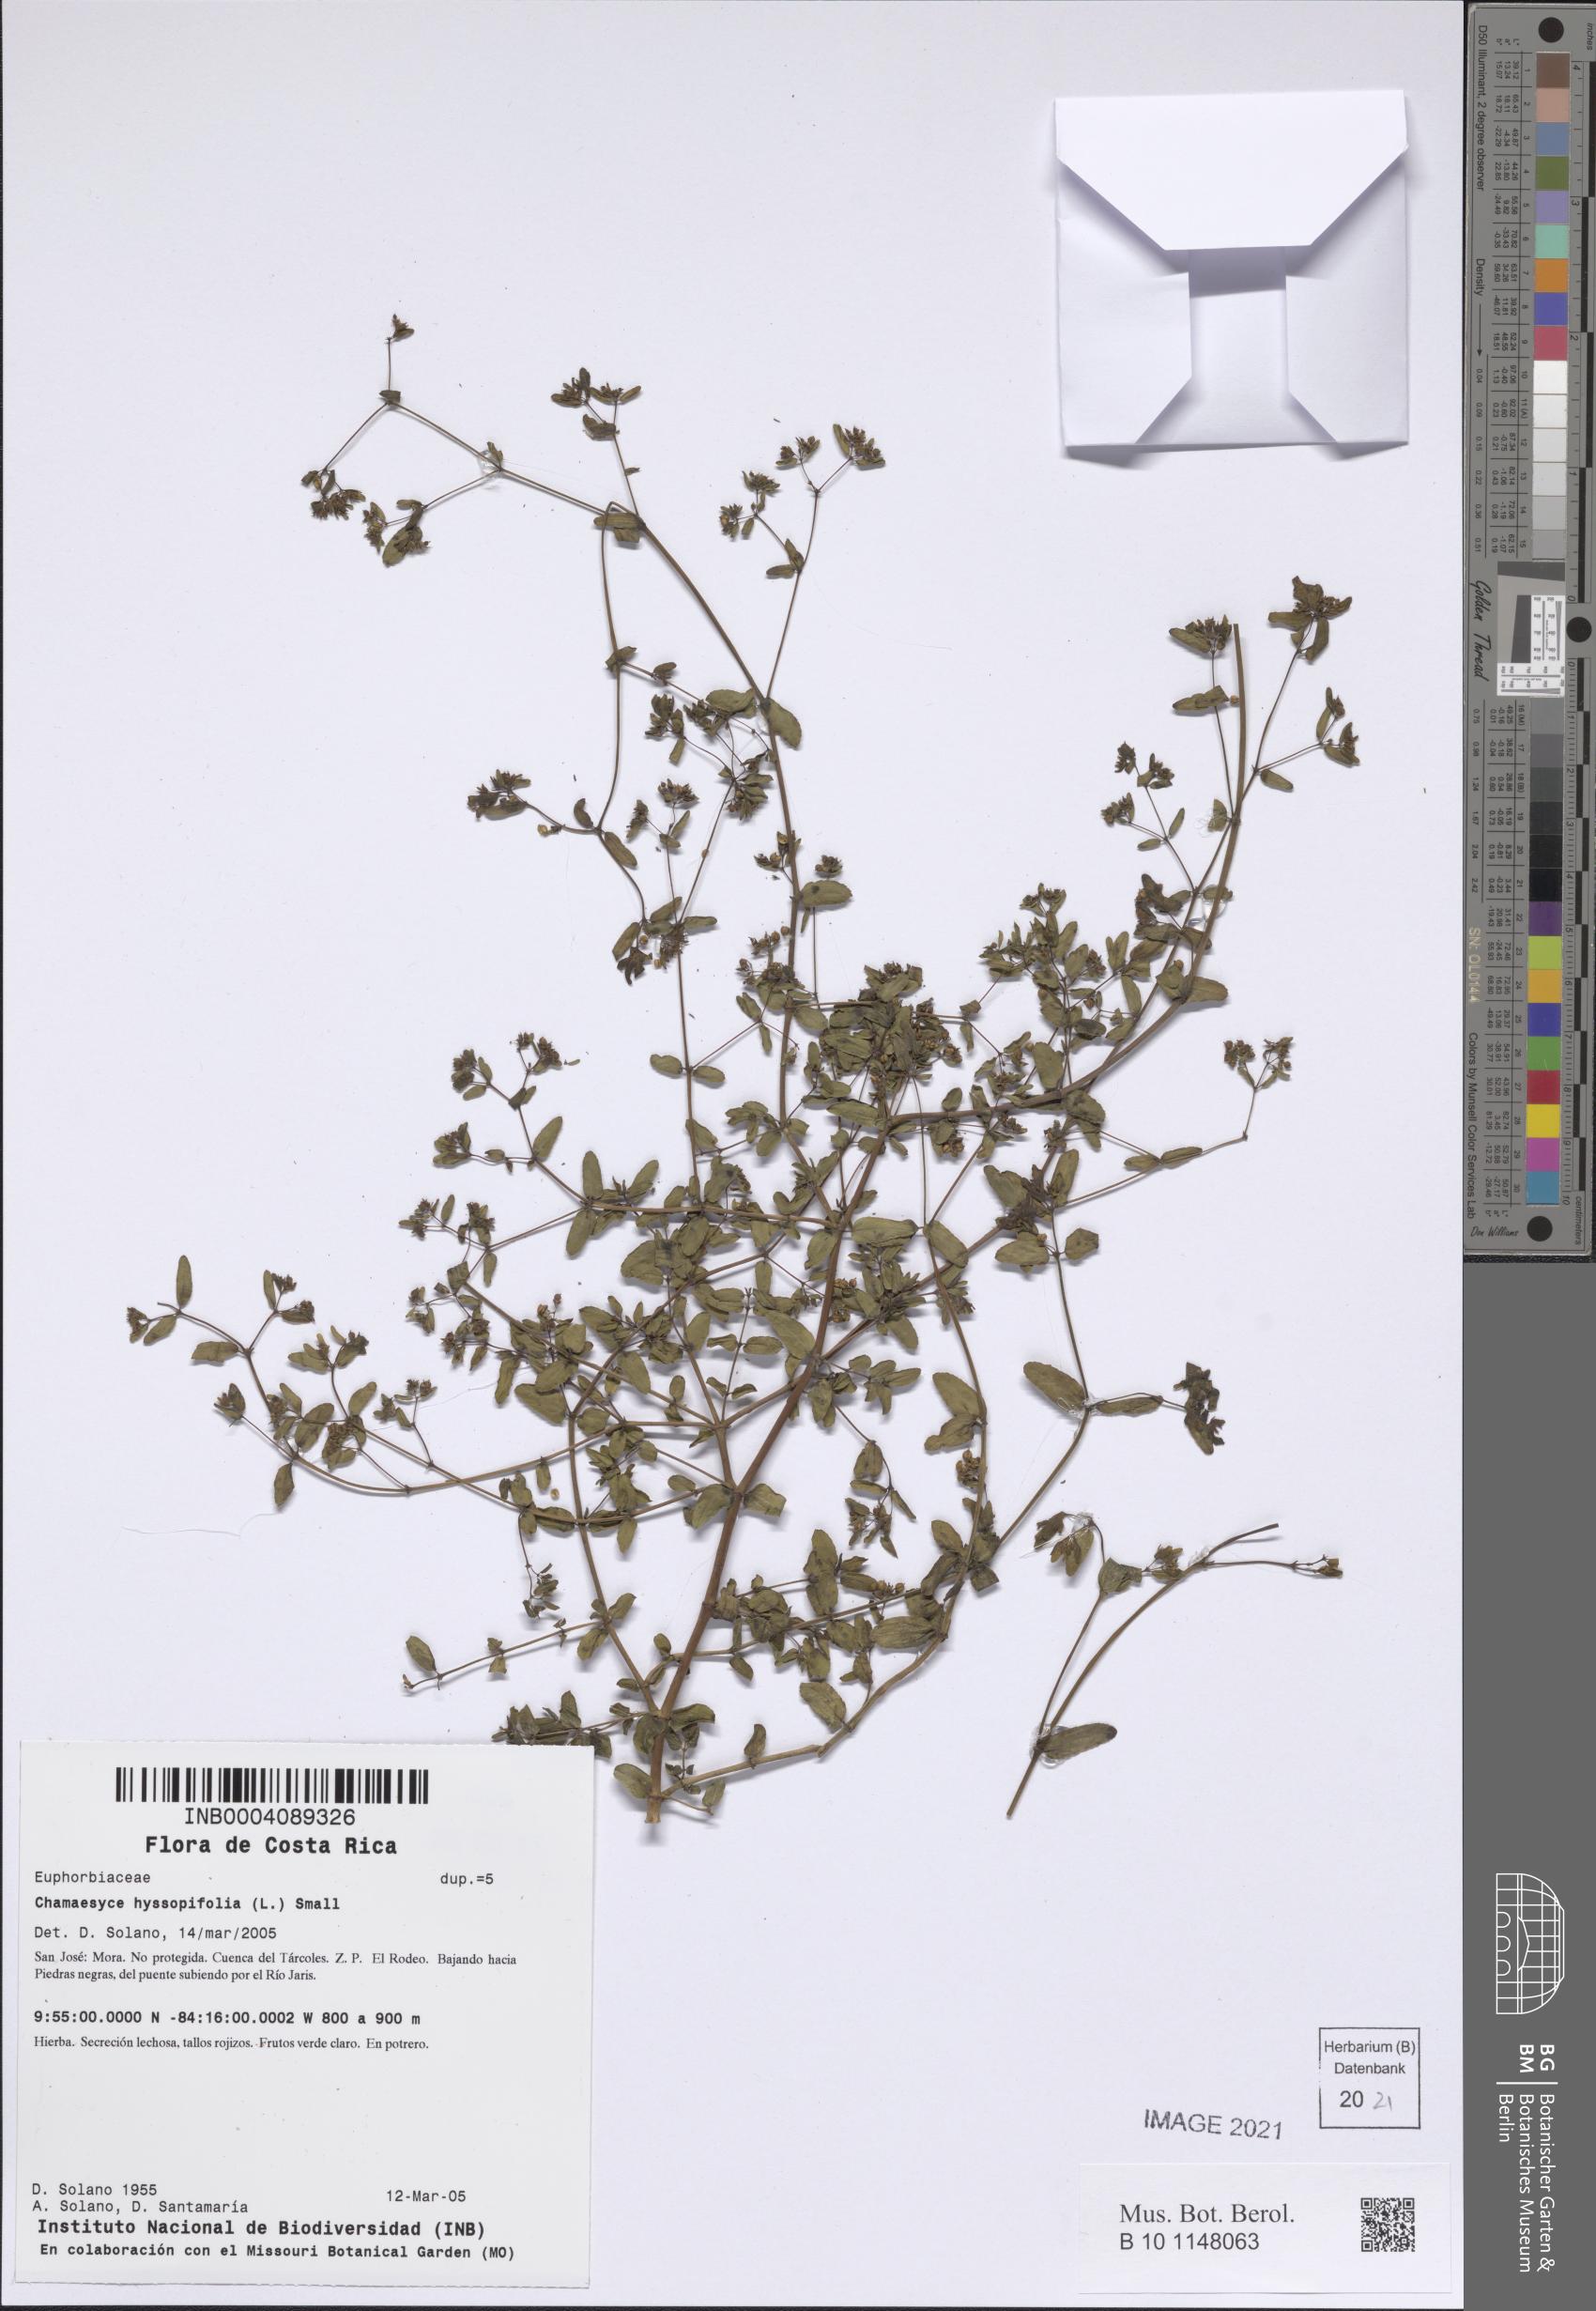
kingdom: Plantae
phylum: Tracheophyta
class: Magnoliopsida
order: Malpighiales
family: Euphorbiaceae
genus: Euphorbia
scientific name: Euphorbia hyssopifolia
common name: Hyssopleaf sandmat
